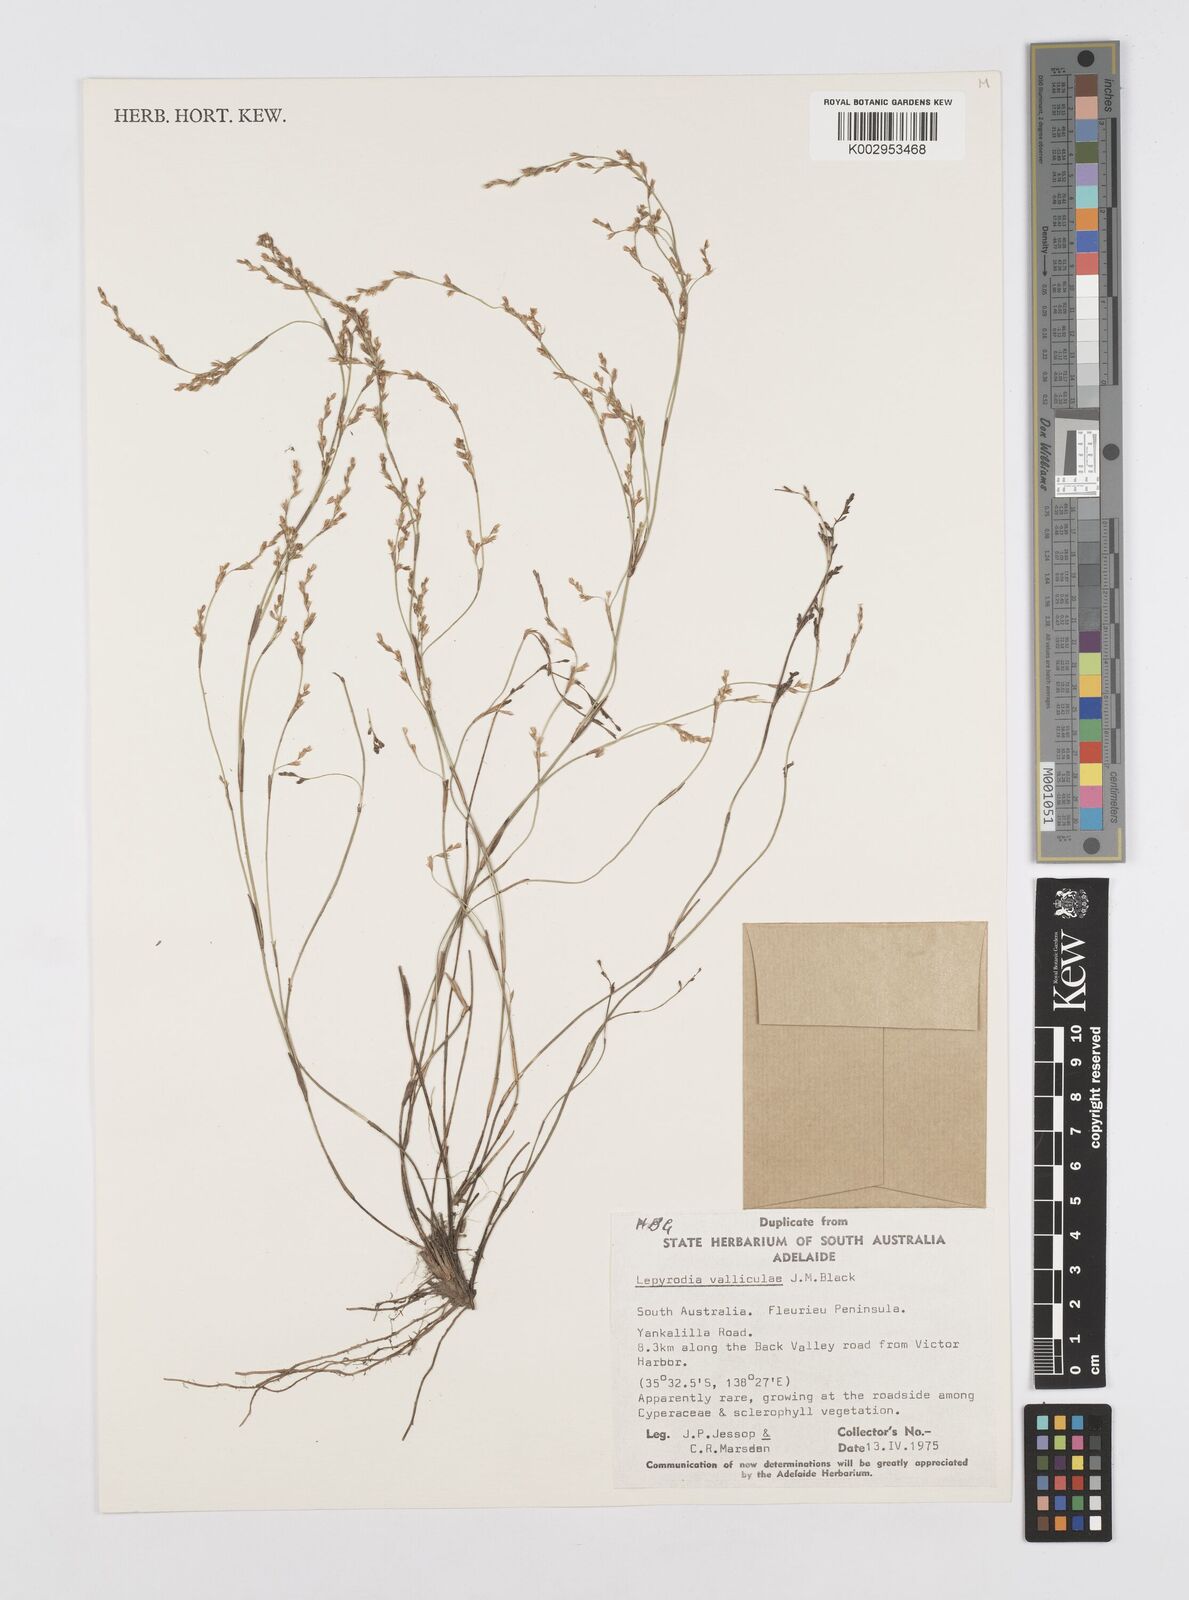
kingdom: Plantae
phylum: Tracheophyta
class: Liliopsida
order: Poales
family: Restionaceae
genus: Lepyrodia
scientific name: Lepyrodia valliculae
